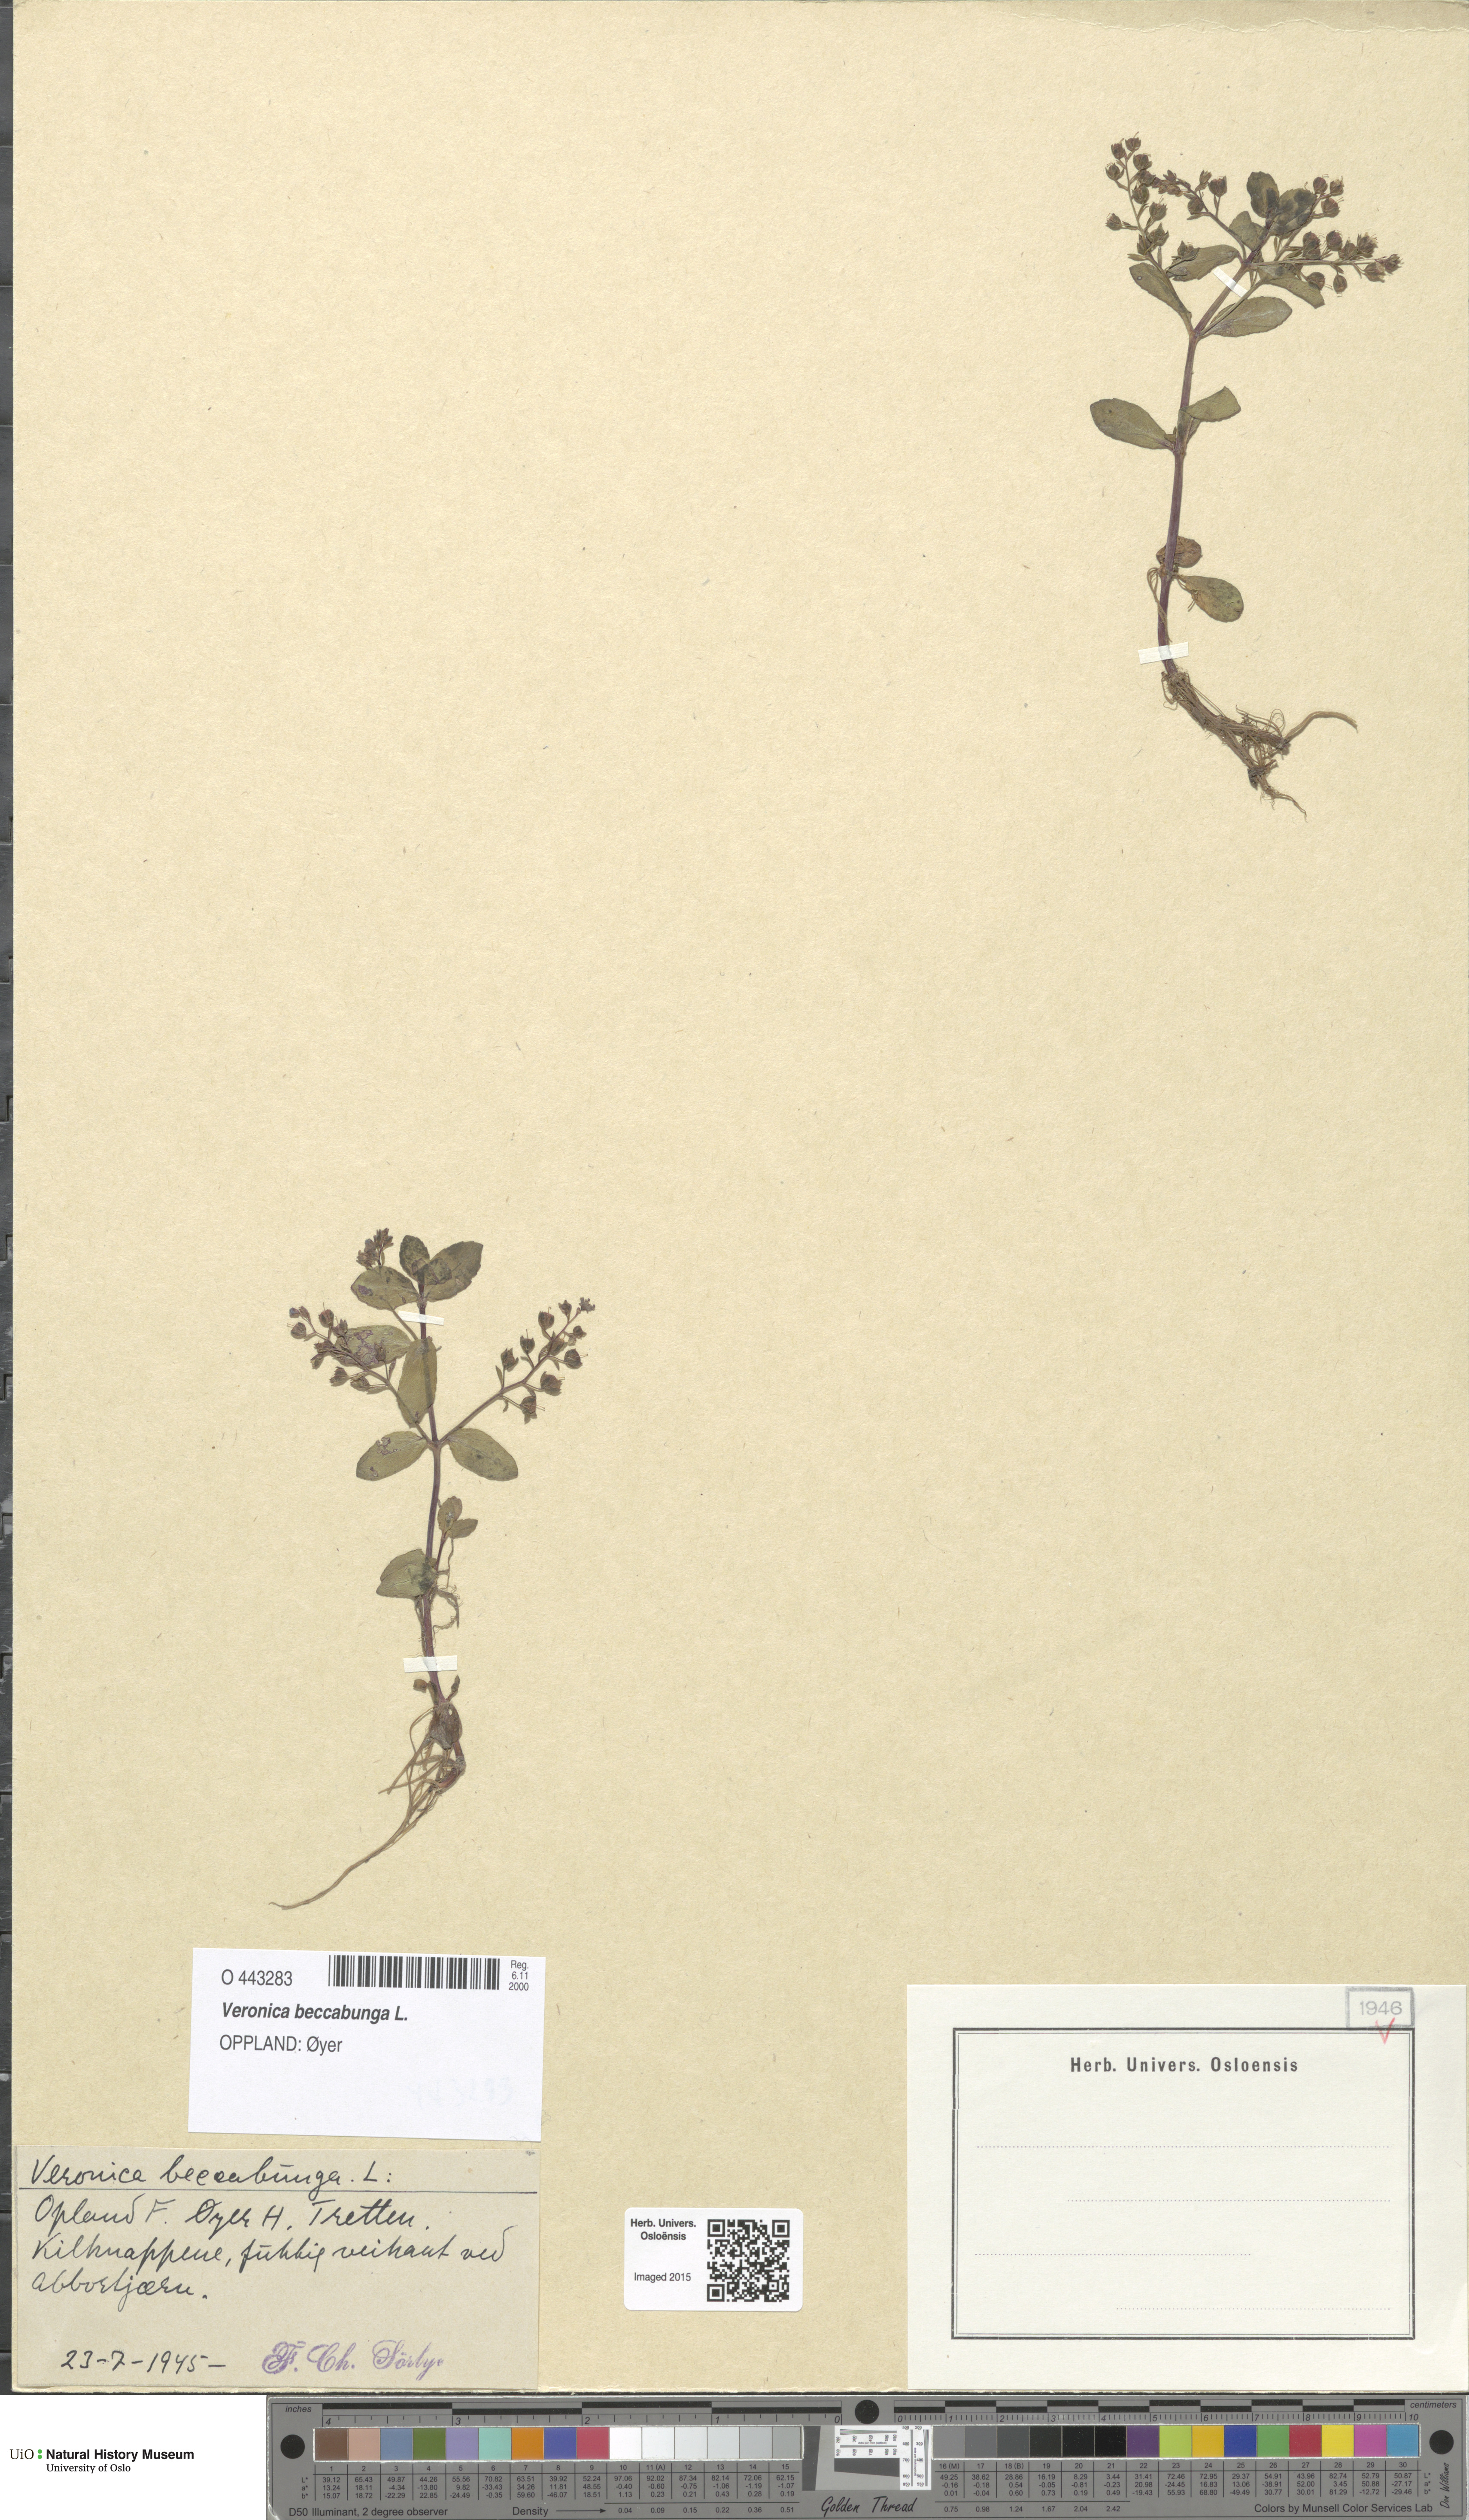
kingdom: Plantae
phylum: Tracheophyta
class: Magnoliopsida
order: Lamiales
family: Plantaginaceae
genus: Veronica
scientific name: Veronica beccabunga
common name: Brooklime
